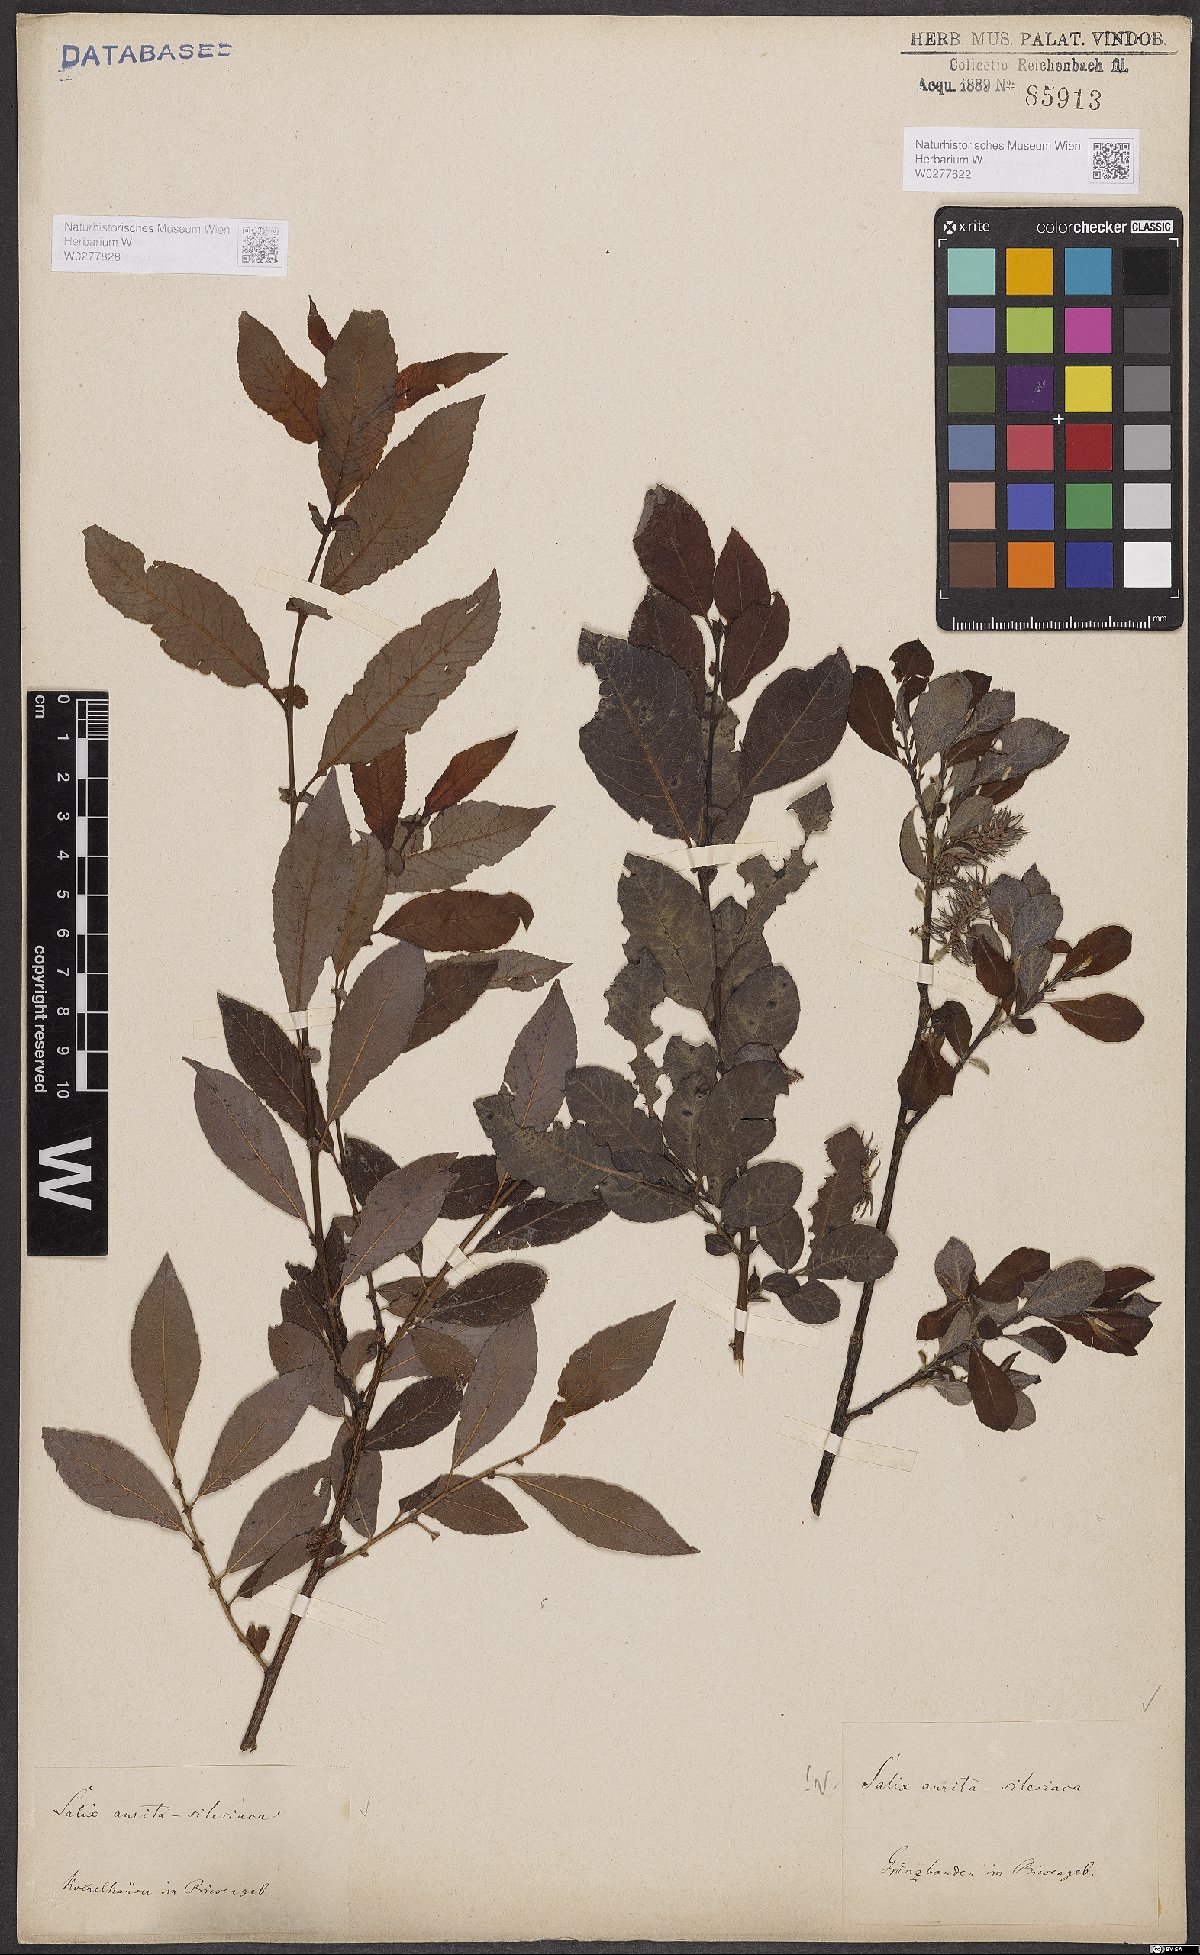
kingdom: Plantae
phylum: Tracheophyta
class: Magnoliopsida
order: Malpighiales
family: Salicaceae
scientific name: Salicaceae
